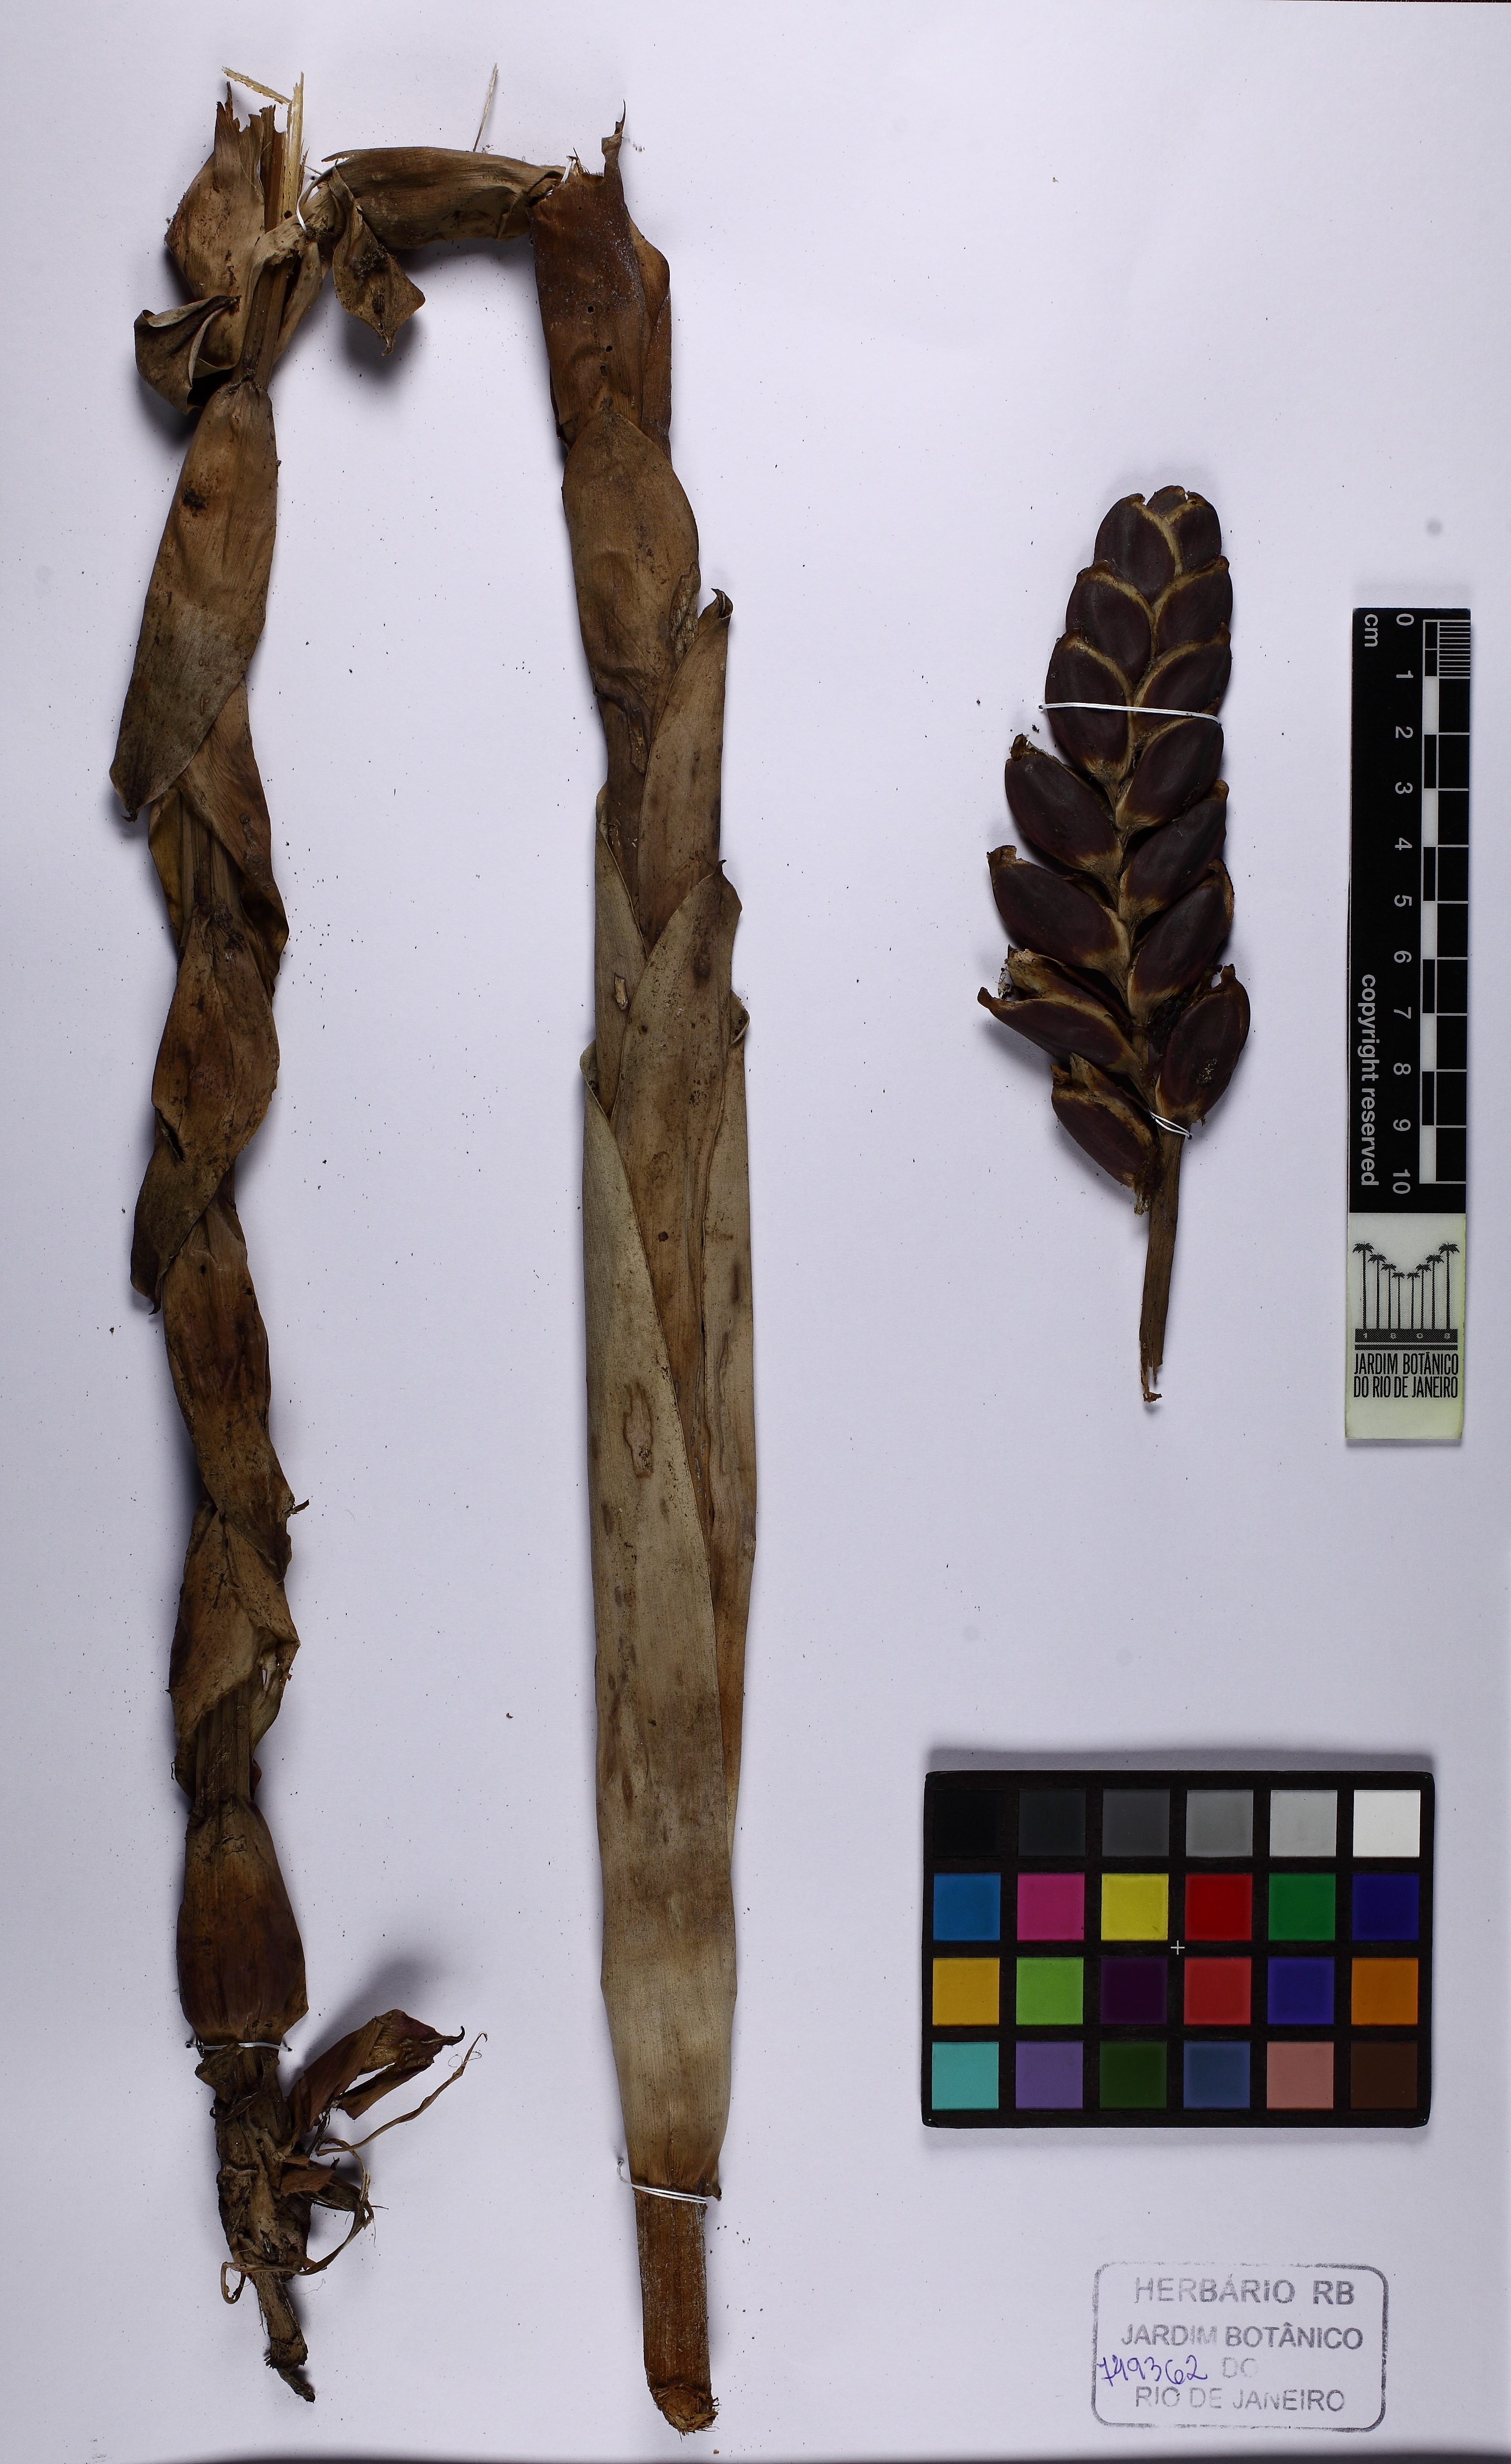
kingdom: Plantae
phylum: Tracheophyta
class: Liliopsida
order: Poales
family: Bromeliaceae
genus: Vriesea
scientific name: Vriesea itatiaiae
